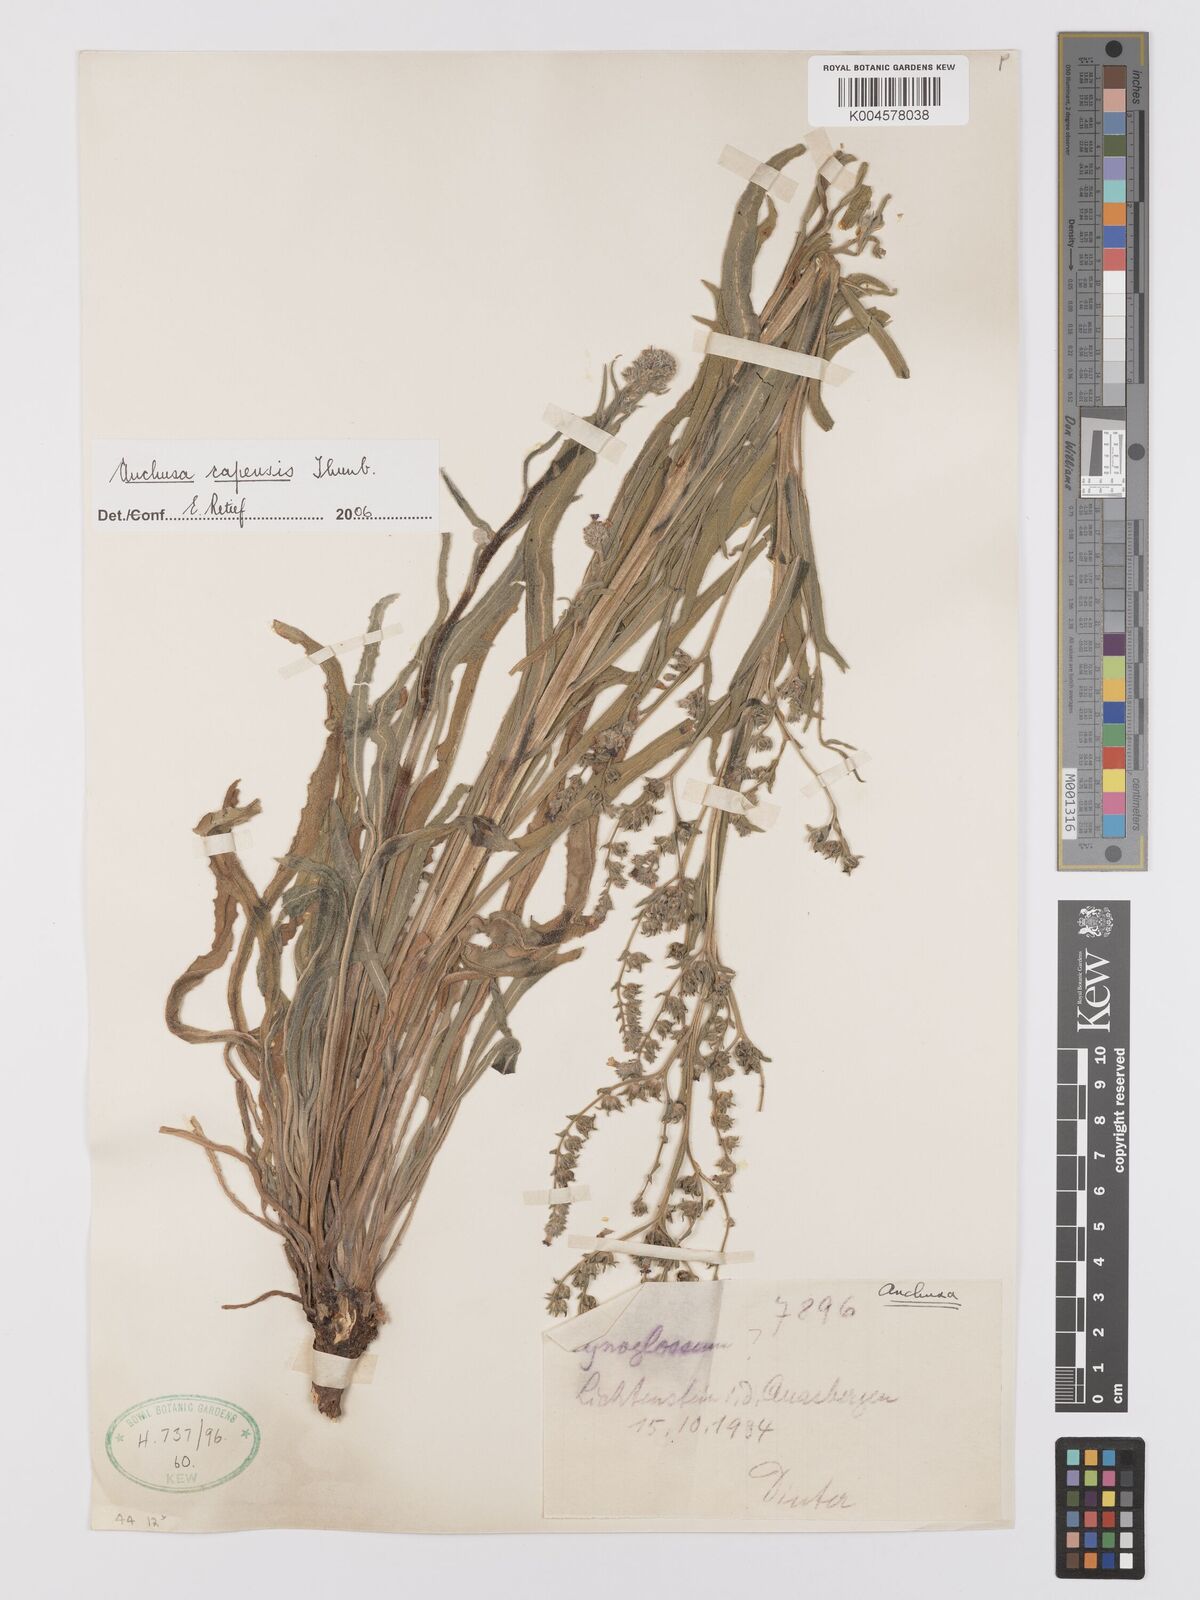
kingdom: Plantae
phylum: Tracheophyta
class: Magnoliopsida
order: Boraginales
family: Boraginaceae
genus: Anchusa
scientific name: Anchusa capensis
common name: Cape bugloss
